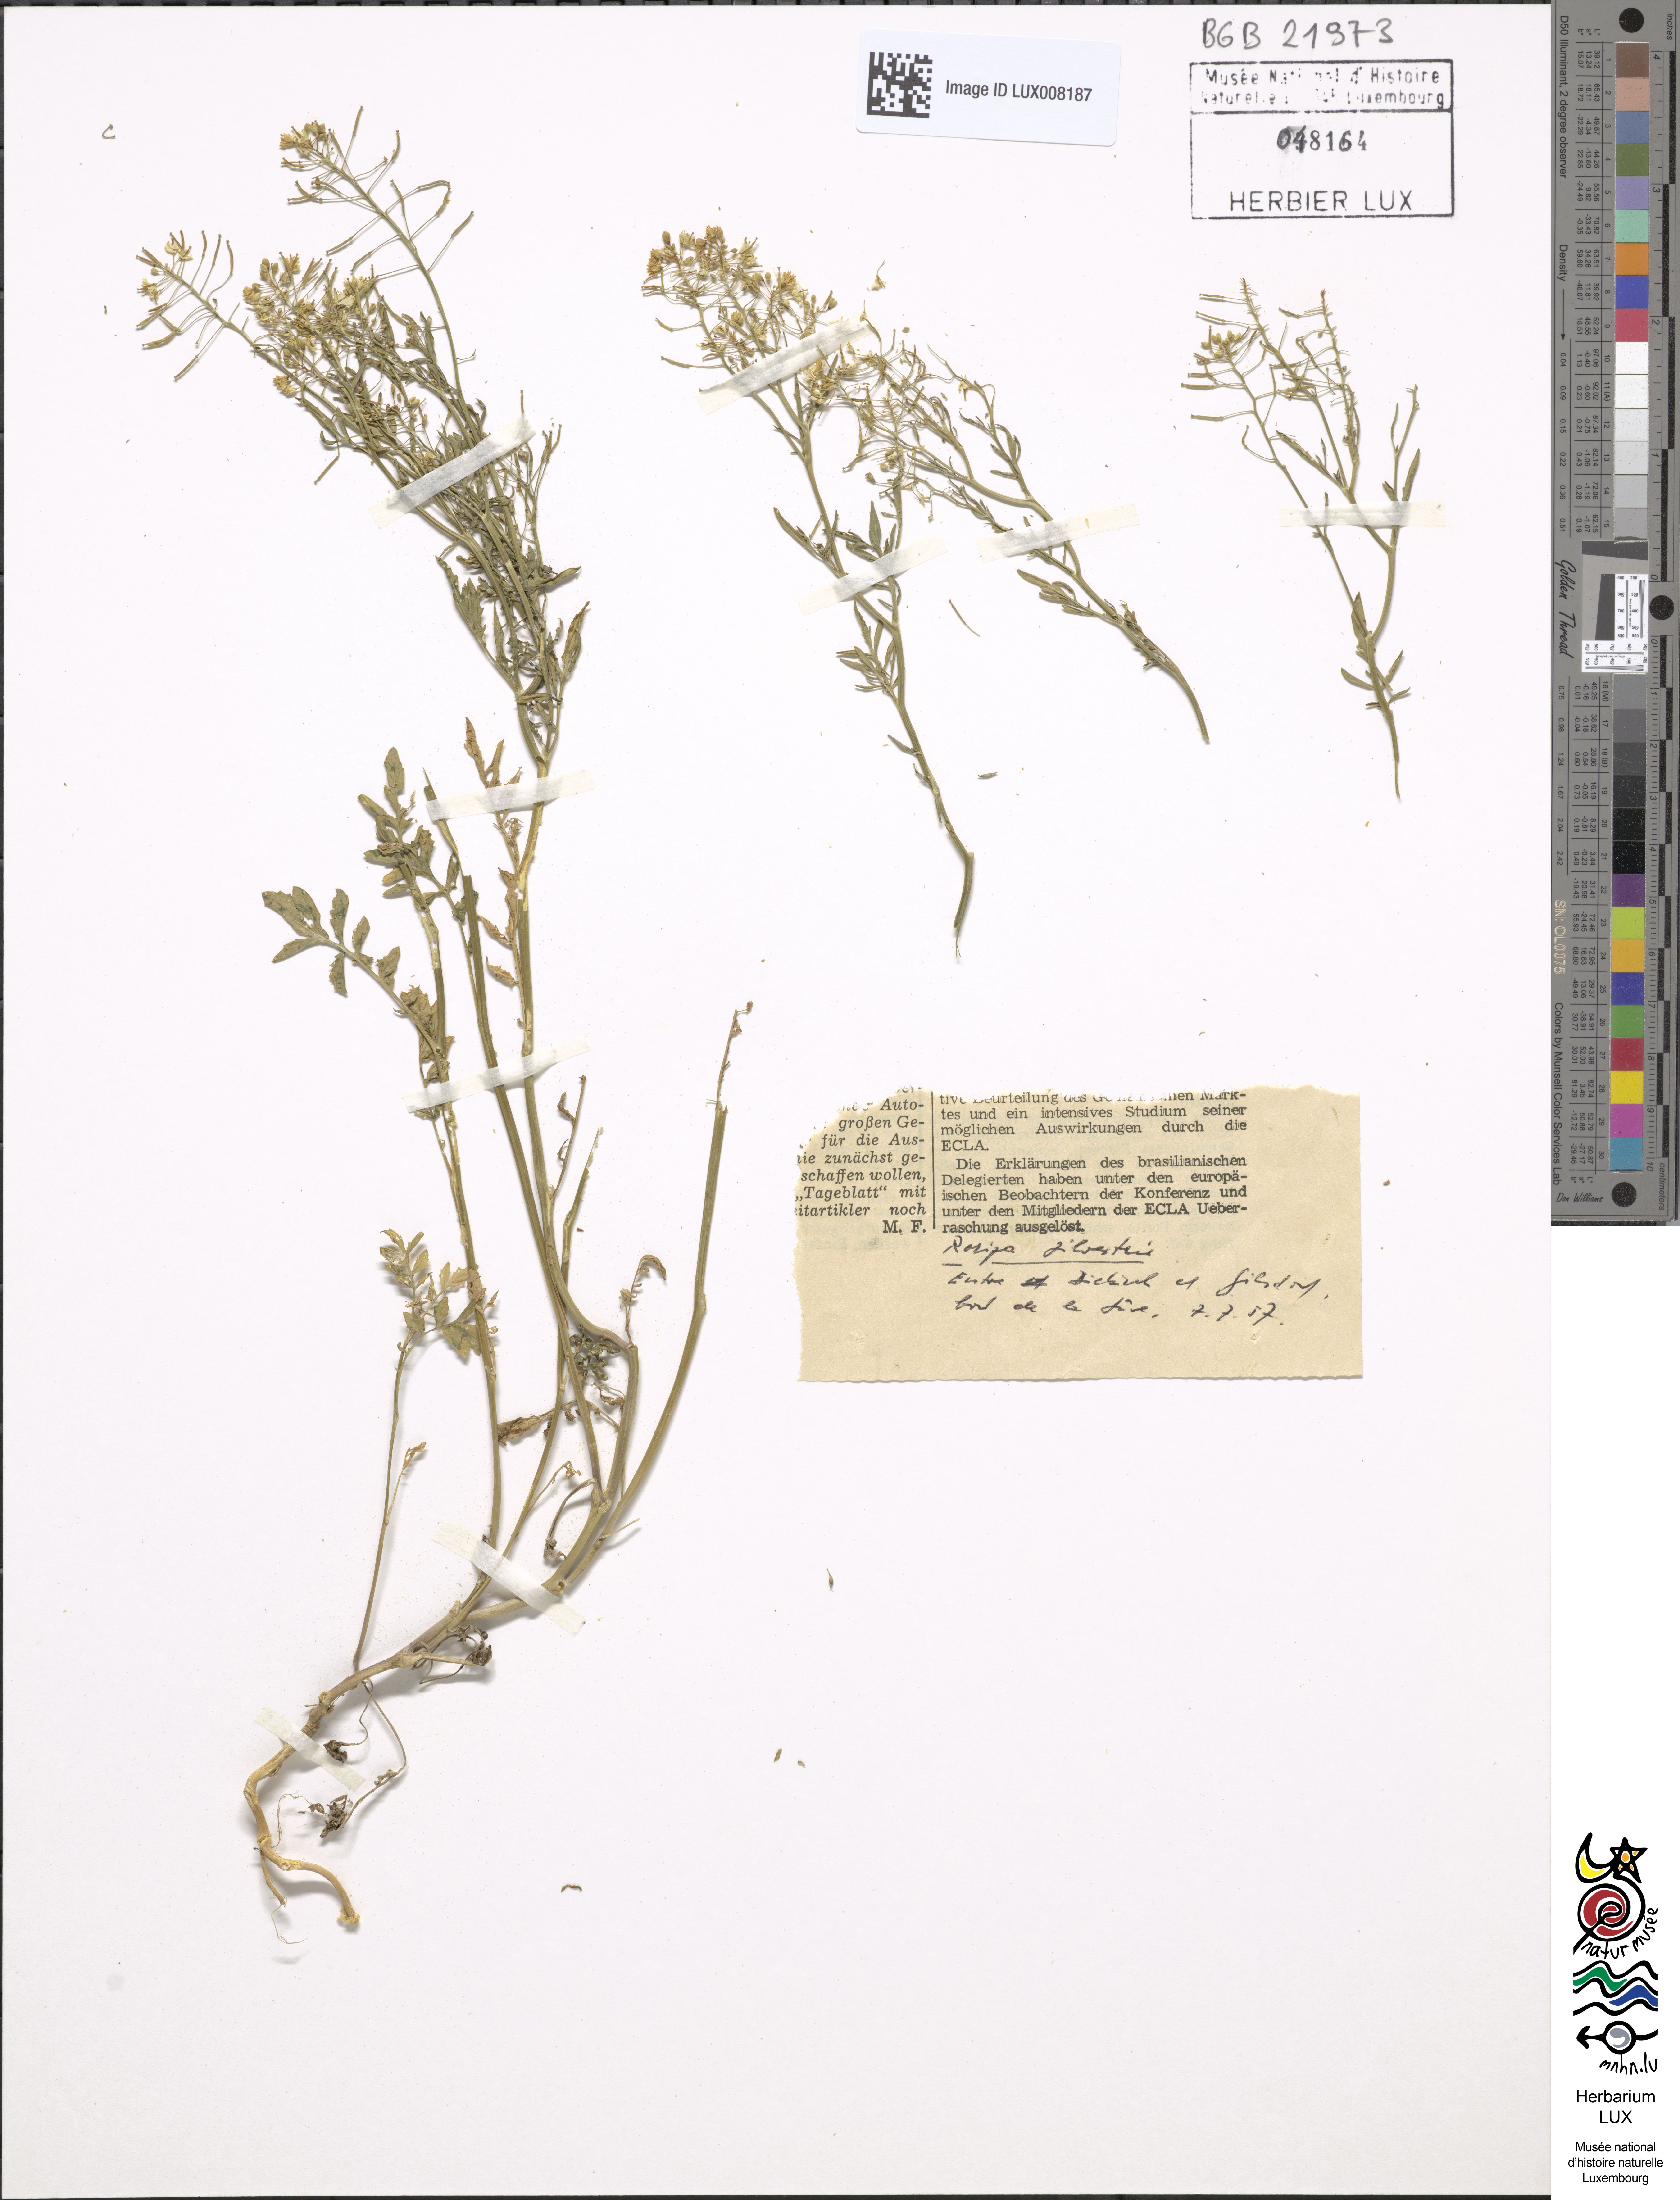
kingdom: Plantae
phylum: Tracheophyta
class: Magnoliopsida
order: Brassicales
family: Brassicaceae
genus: Rorippa
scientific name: Rorippa sylvestris
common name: Creeping yellowcress
